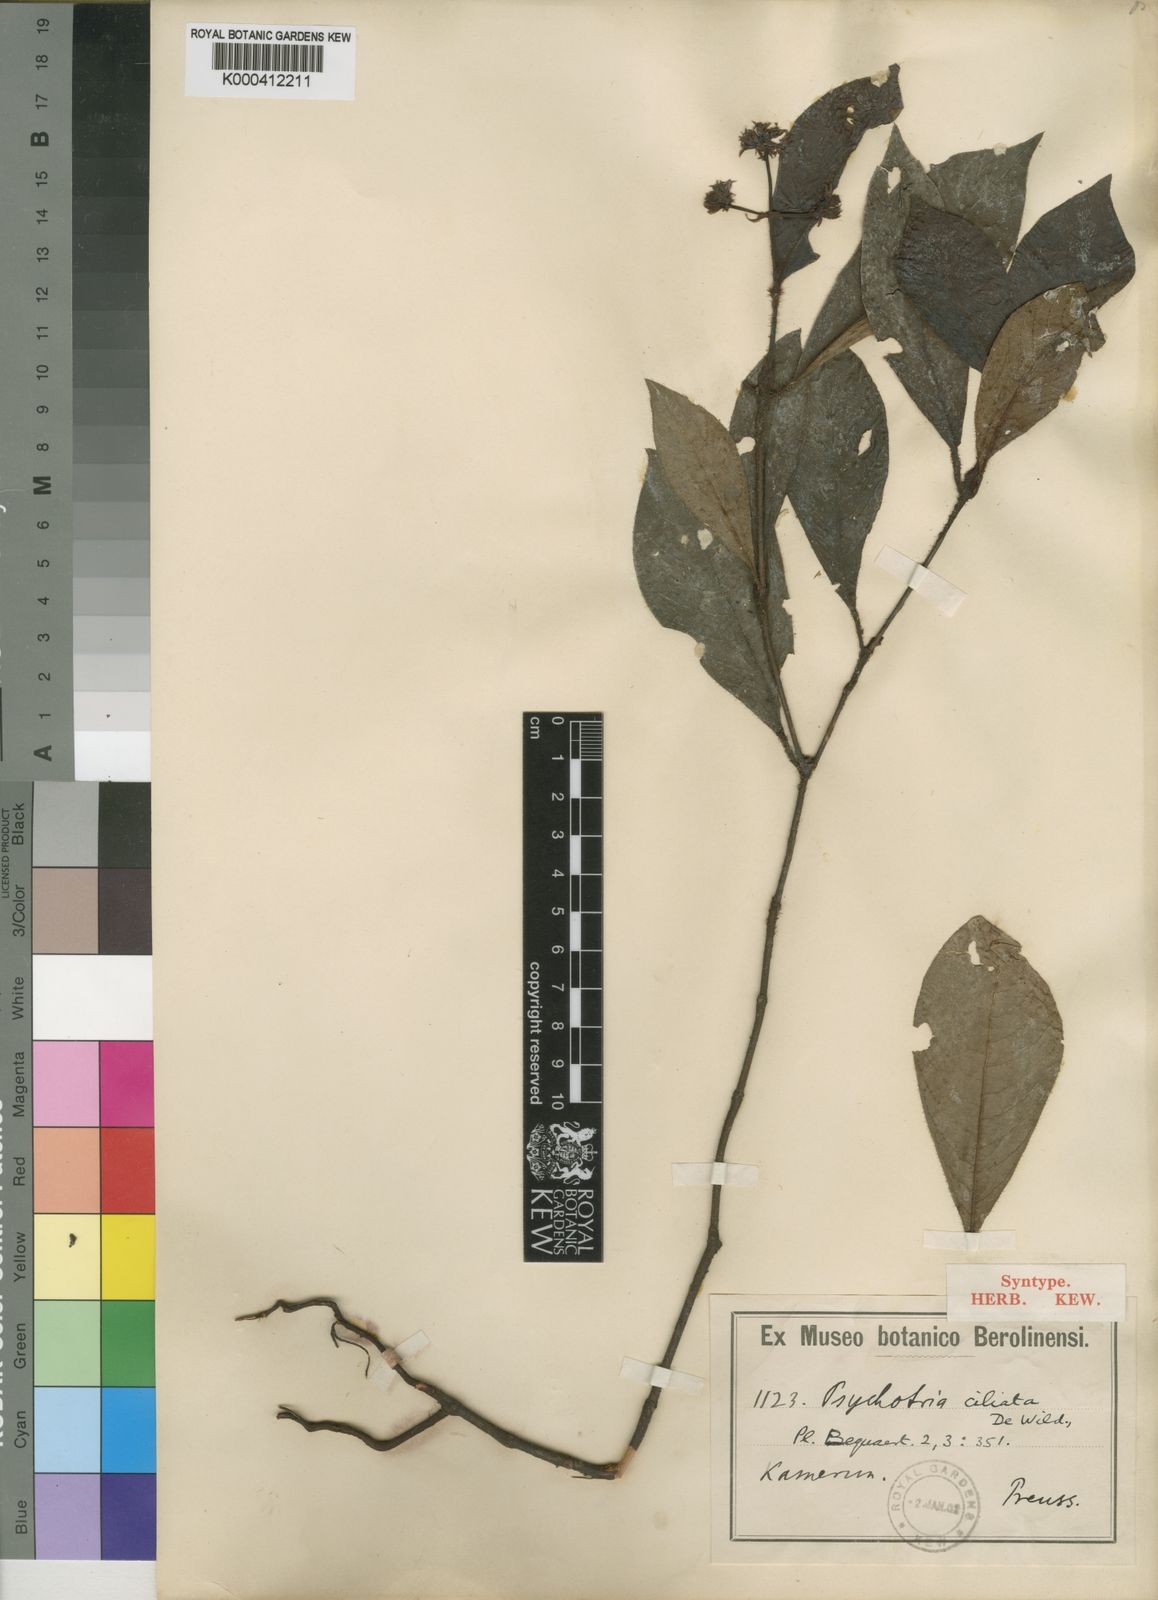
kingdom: Plantae
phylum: Tracheophyta
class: Magnoliopsida
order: Gentianales
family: Rubiaceae
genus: Psychotria
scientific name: Psychotria ebensis
